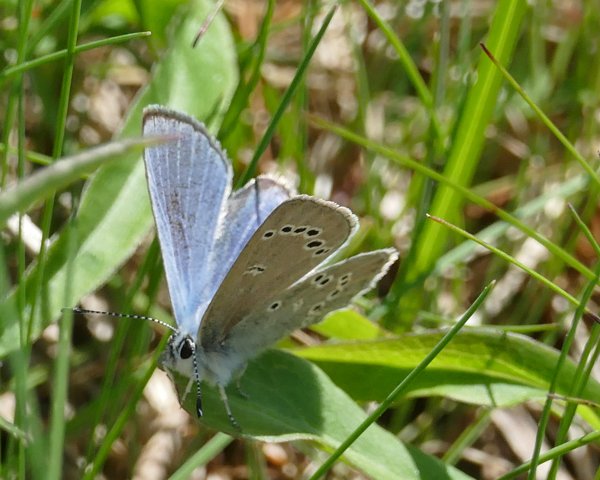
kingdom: Animalia
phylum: Arthropoda
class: Insecta
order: Lepidoptera
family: Lycaenidae
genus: Glaucopsyche
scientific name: Glaucopsyche lygdamus
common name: Silvery Blue
